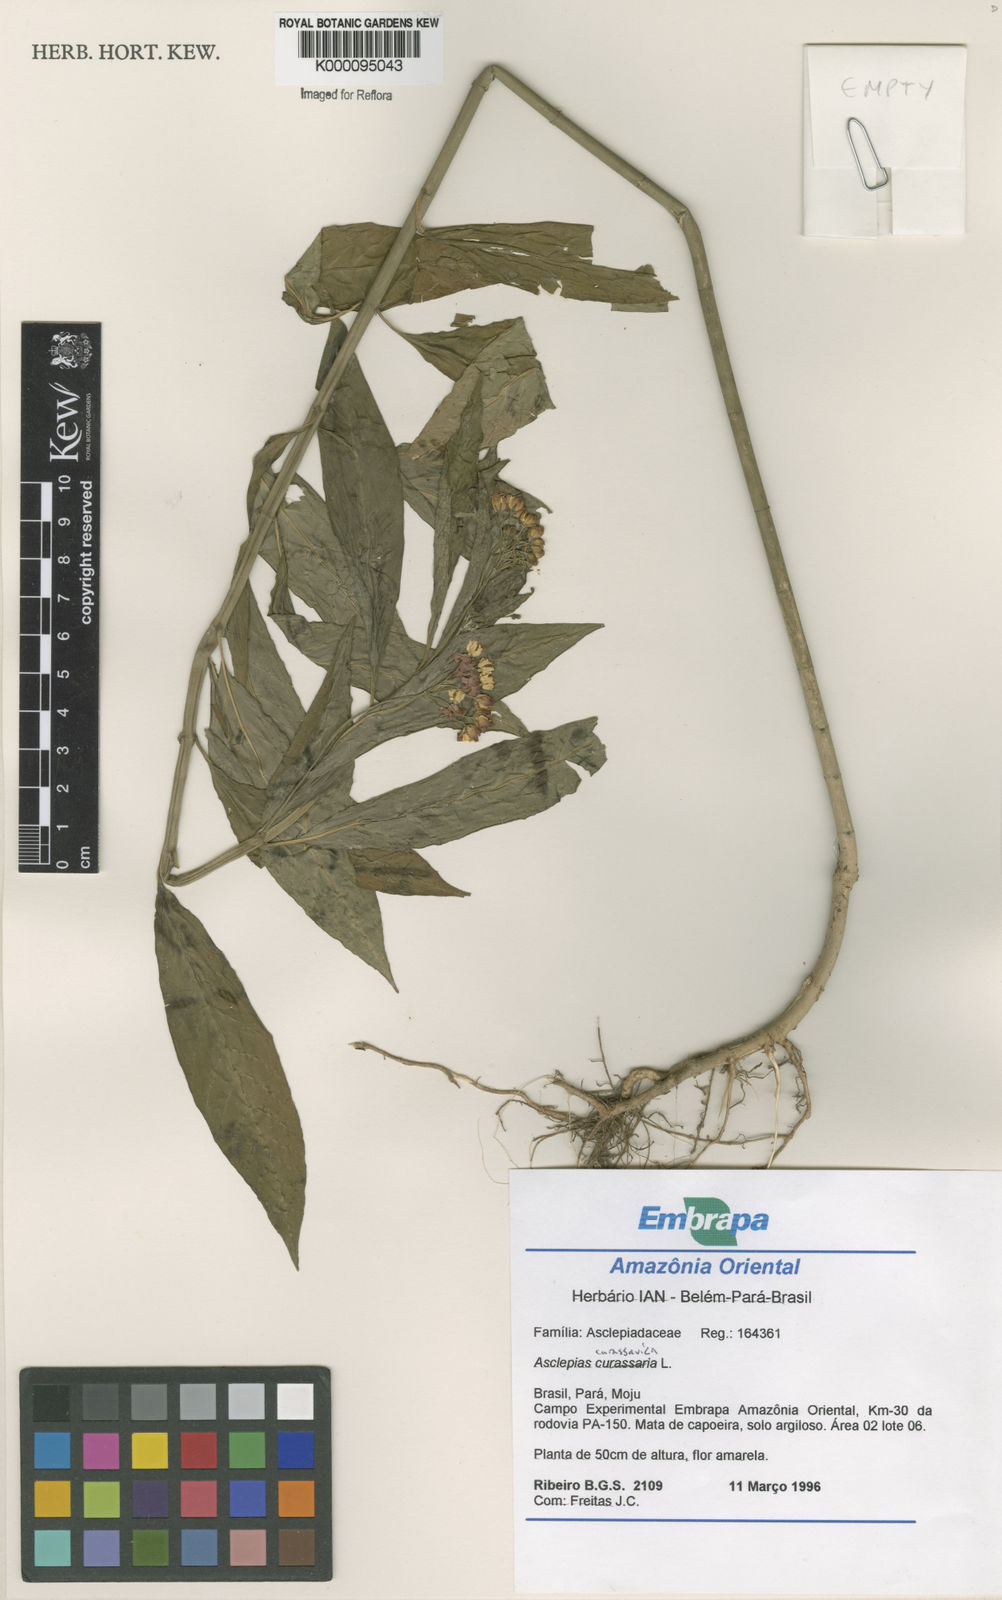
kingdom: Plantae
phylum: Tracheophyta
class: Magnoliopsida
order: Gentianales
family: Apocynaceae
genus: Asclepias
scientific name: Asclepias curassavica
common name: Bloodflower
